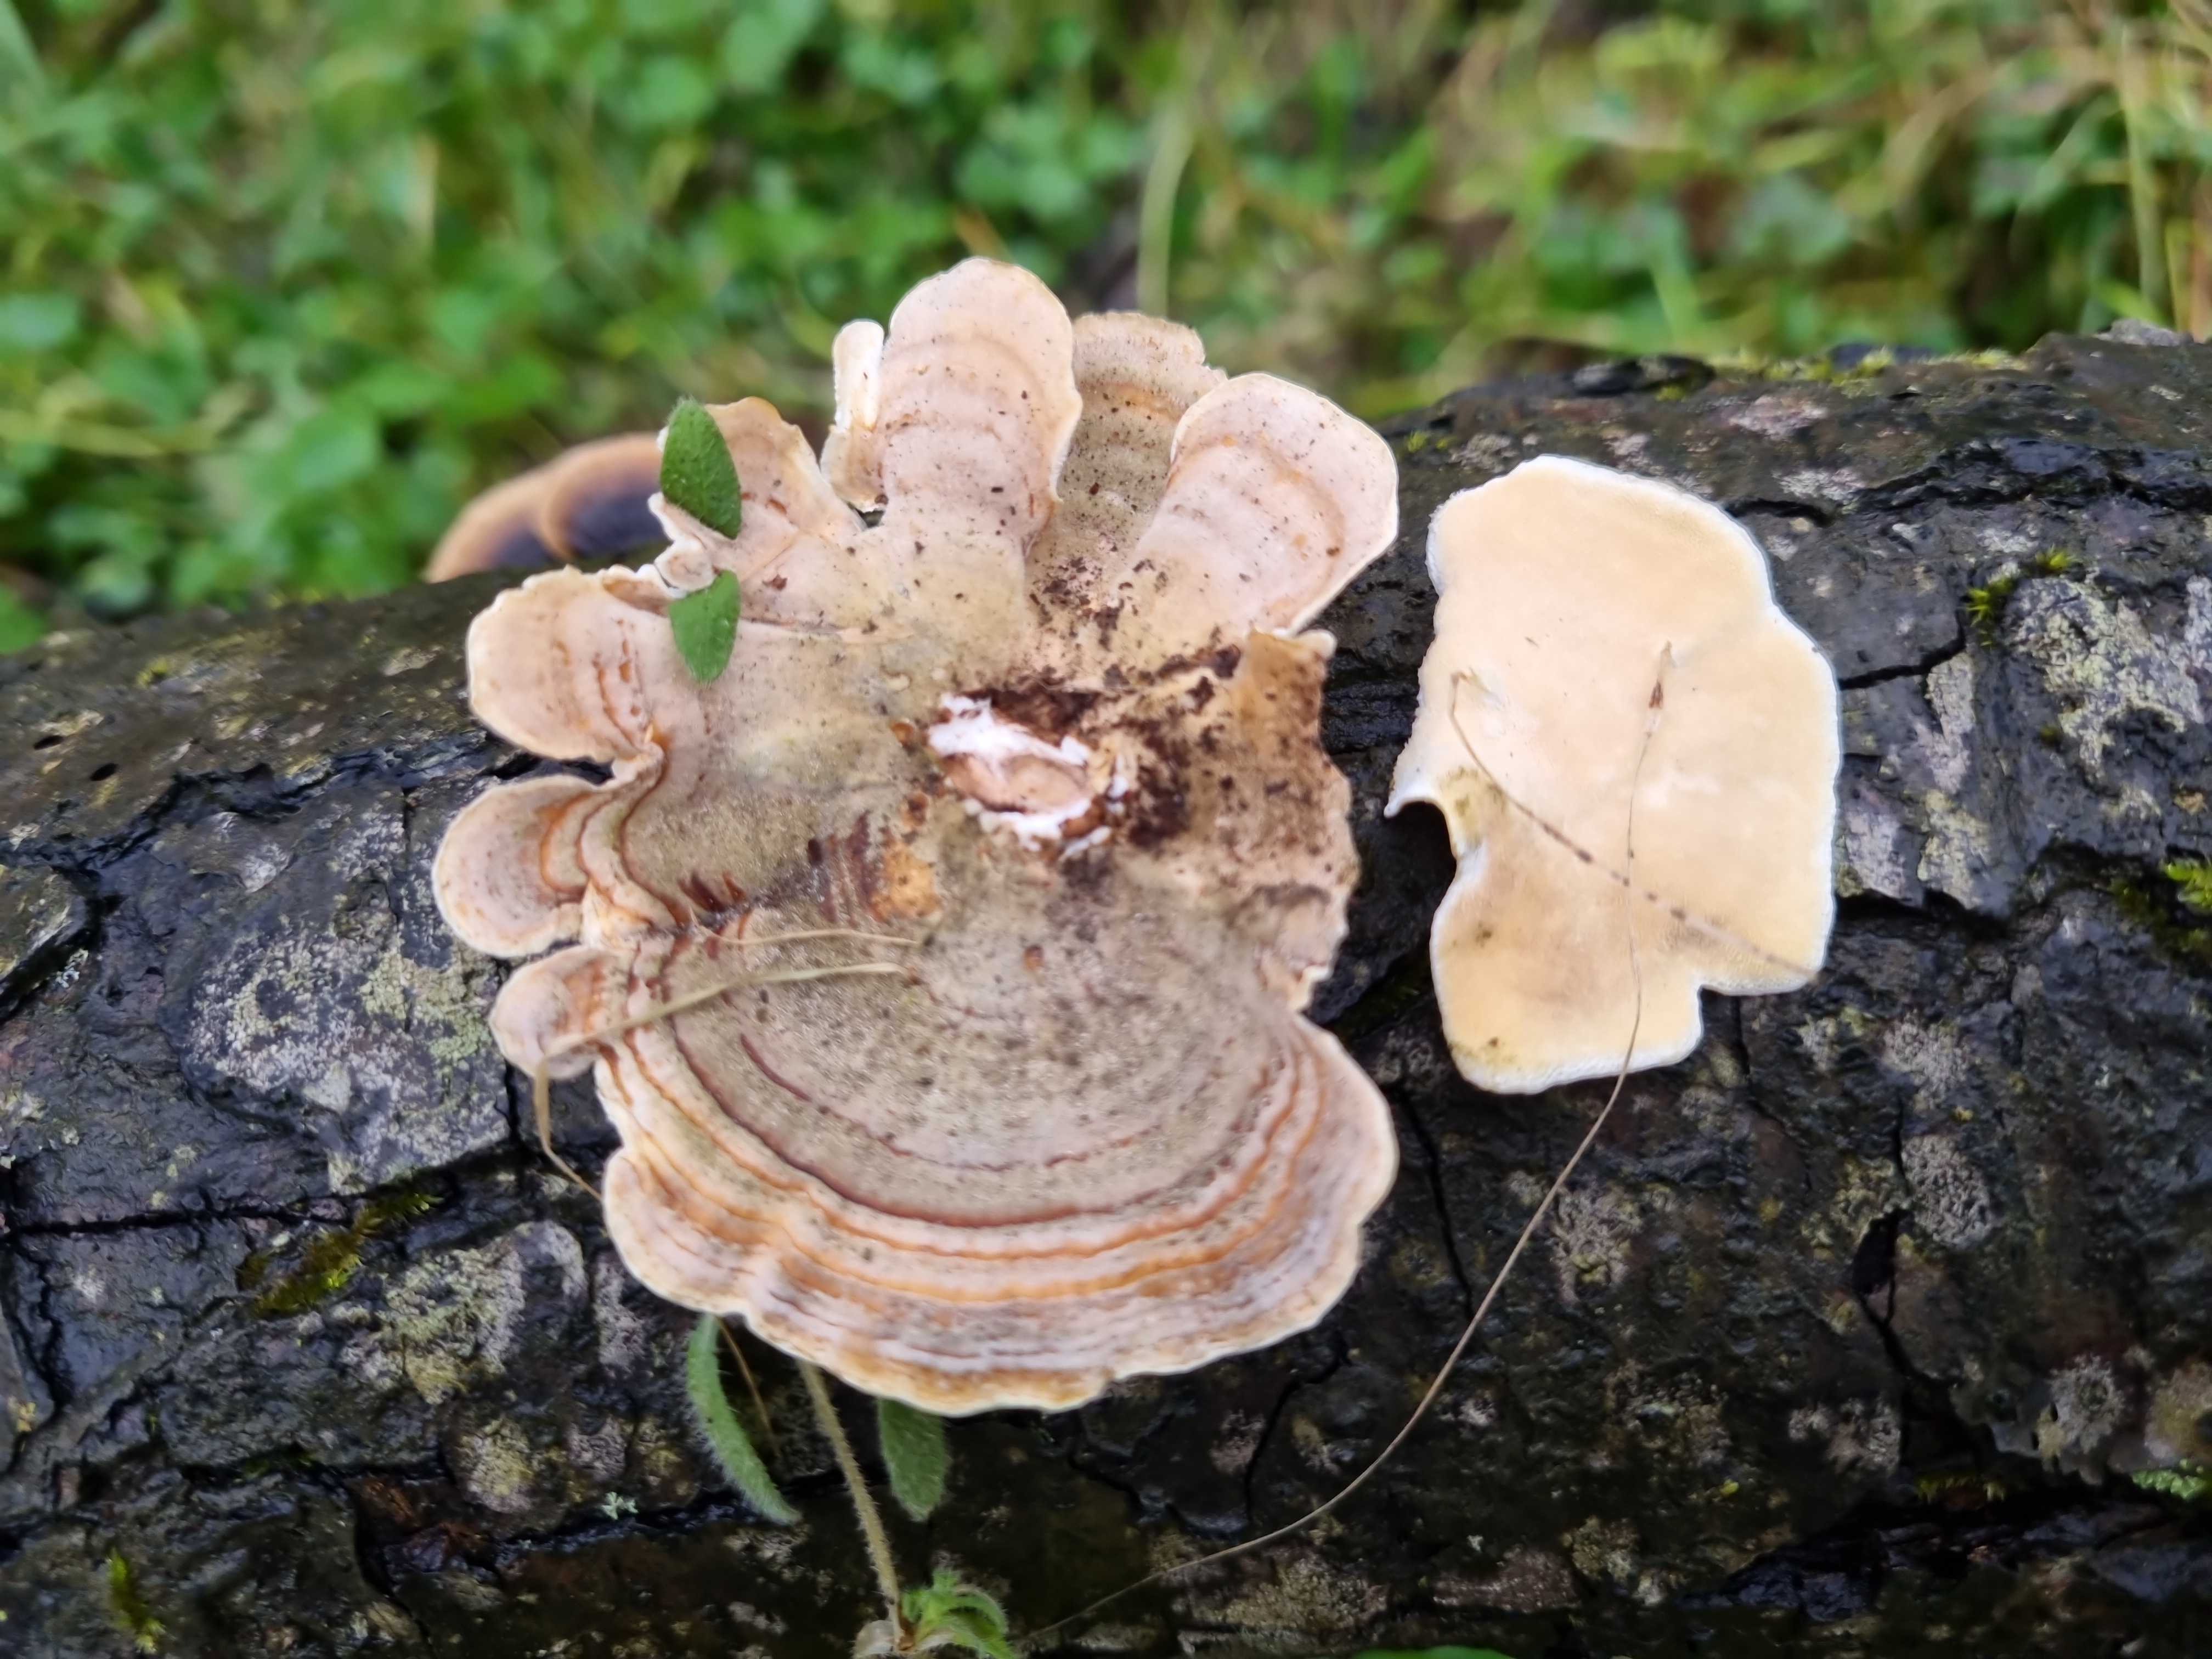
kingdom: Fungi
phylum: Basidiomycota
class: Agaricomycetes
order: Polyporales
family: Polyporaceae
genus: Trametes
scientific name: Trametes ochracea
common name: bæltet læderporesvamp
